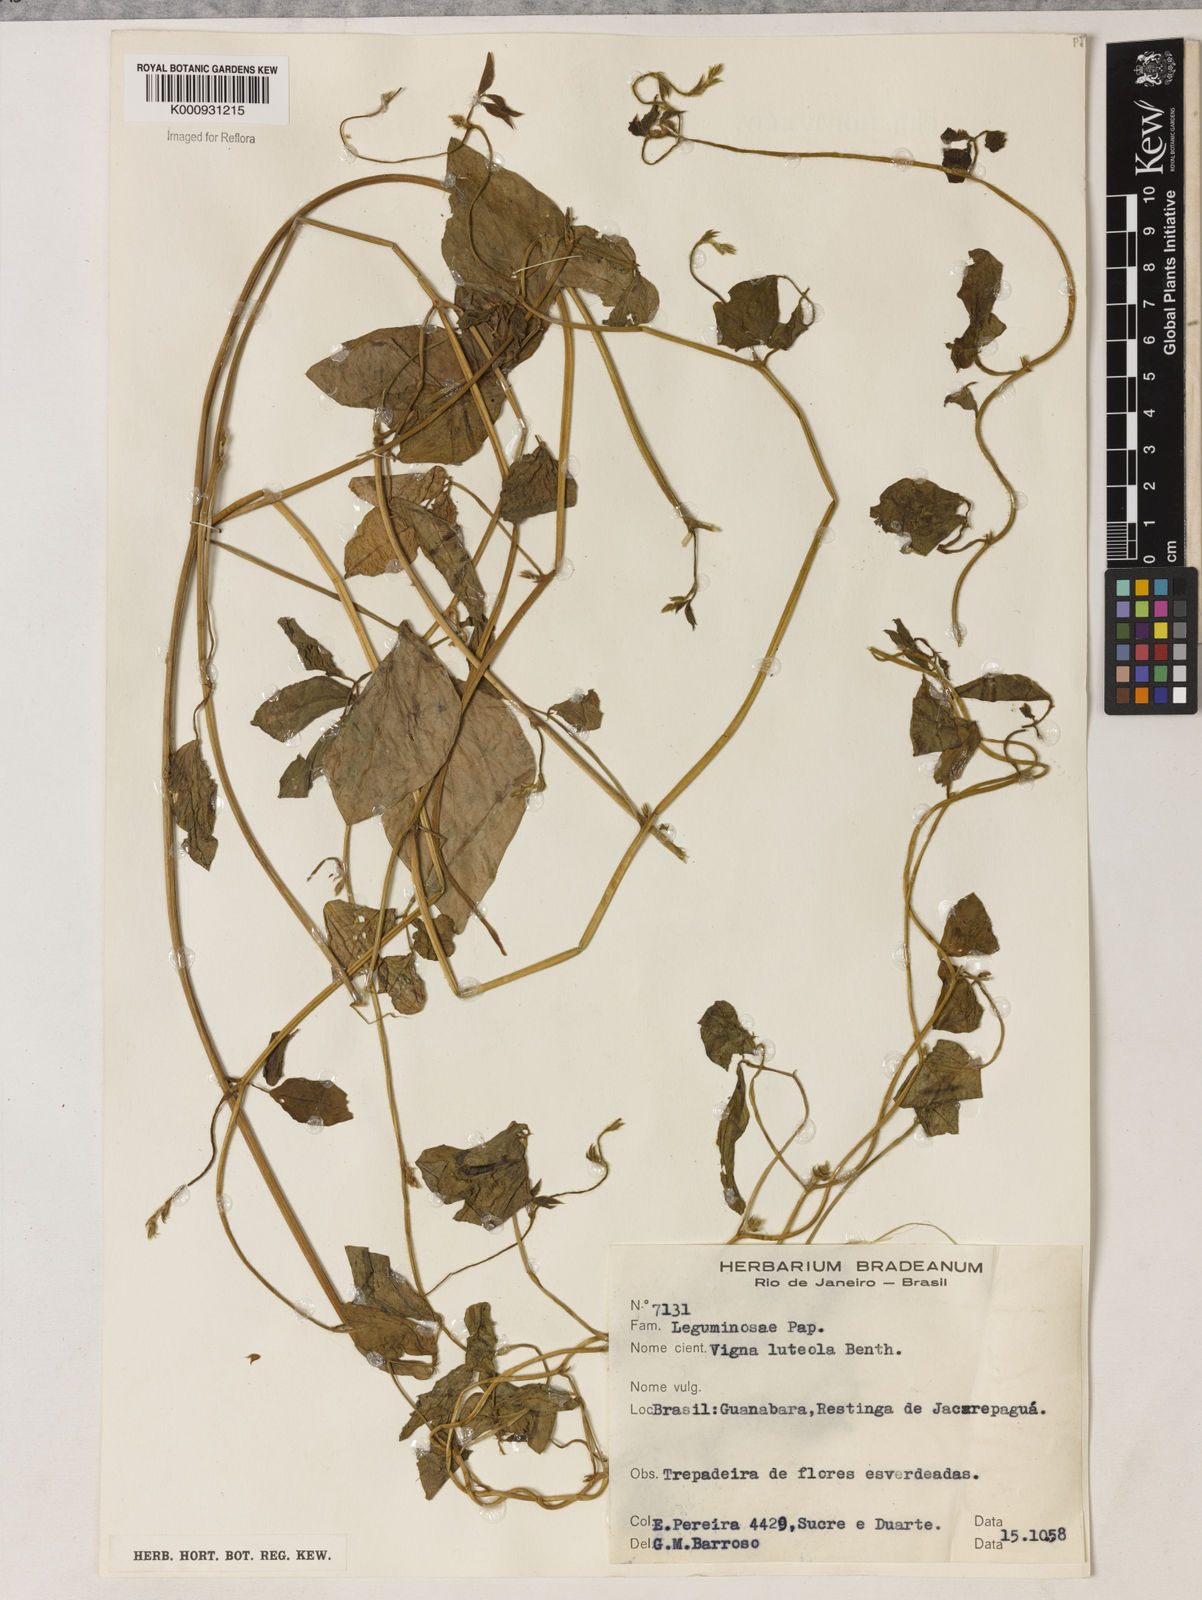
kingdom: Plantae
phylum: Tracheophyta
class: Magnoliopsida
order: Fabales
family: Fabaceae
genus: Vigna
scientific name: Vigna luteola
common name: Hairypod cowpea
